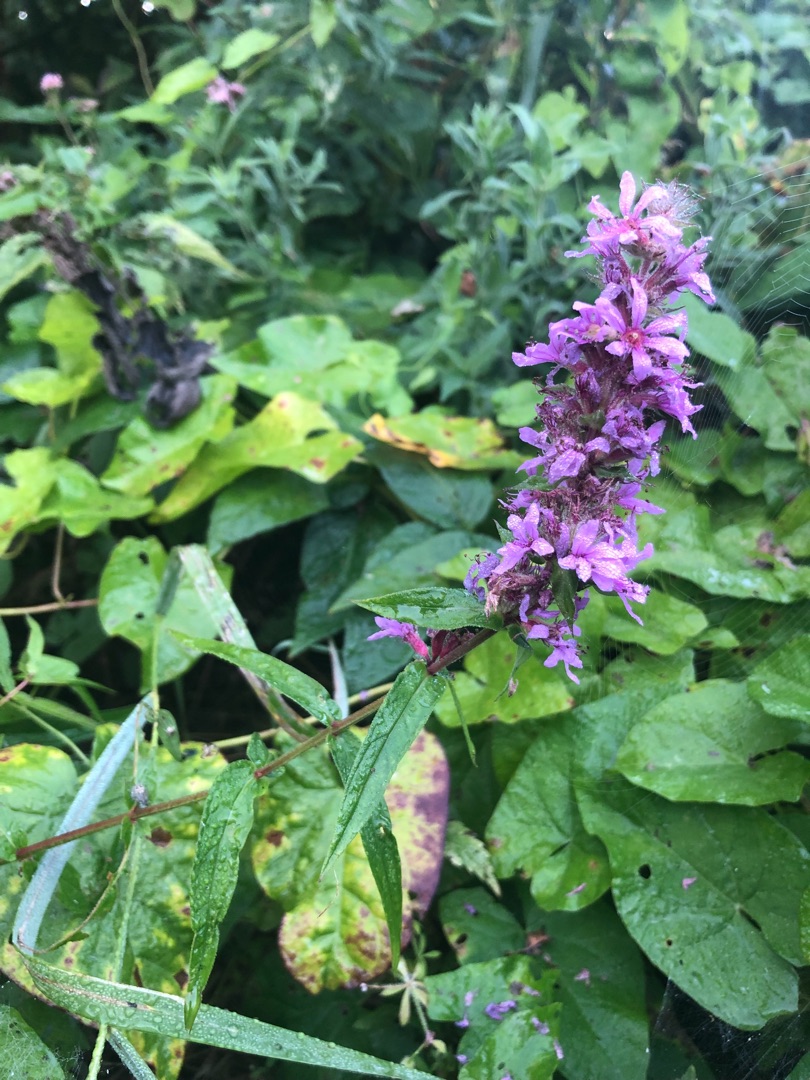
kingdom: Plantae
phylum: Tracheophyta
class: Magnoliopsida
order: Myrtales
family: Lythraceae
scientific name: Lythraceae
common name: Kattehalefamilien
